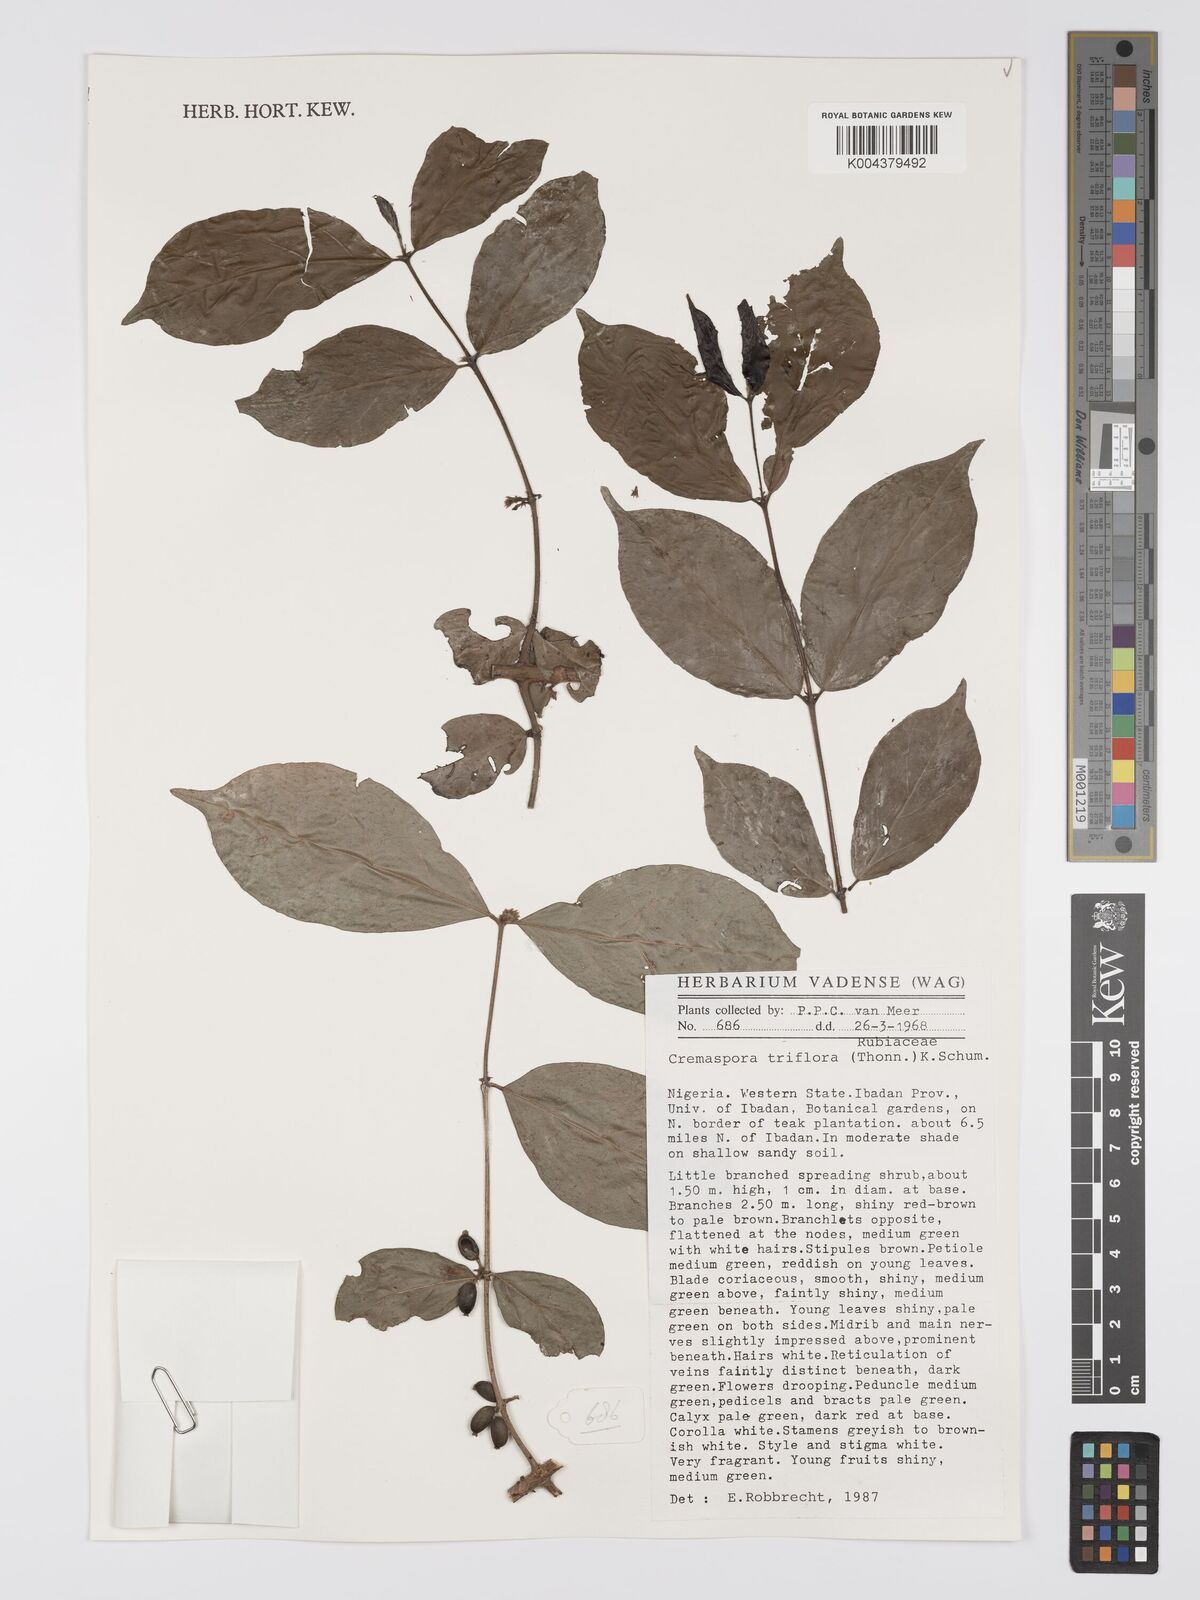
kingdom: Plantae
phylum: Tracheophyta
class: Magnoliopsida
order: Gentianales
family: Rubiaceae
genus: Cremaspora
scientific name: Cremaspora triflora
